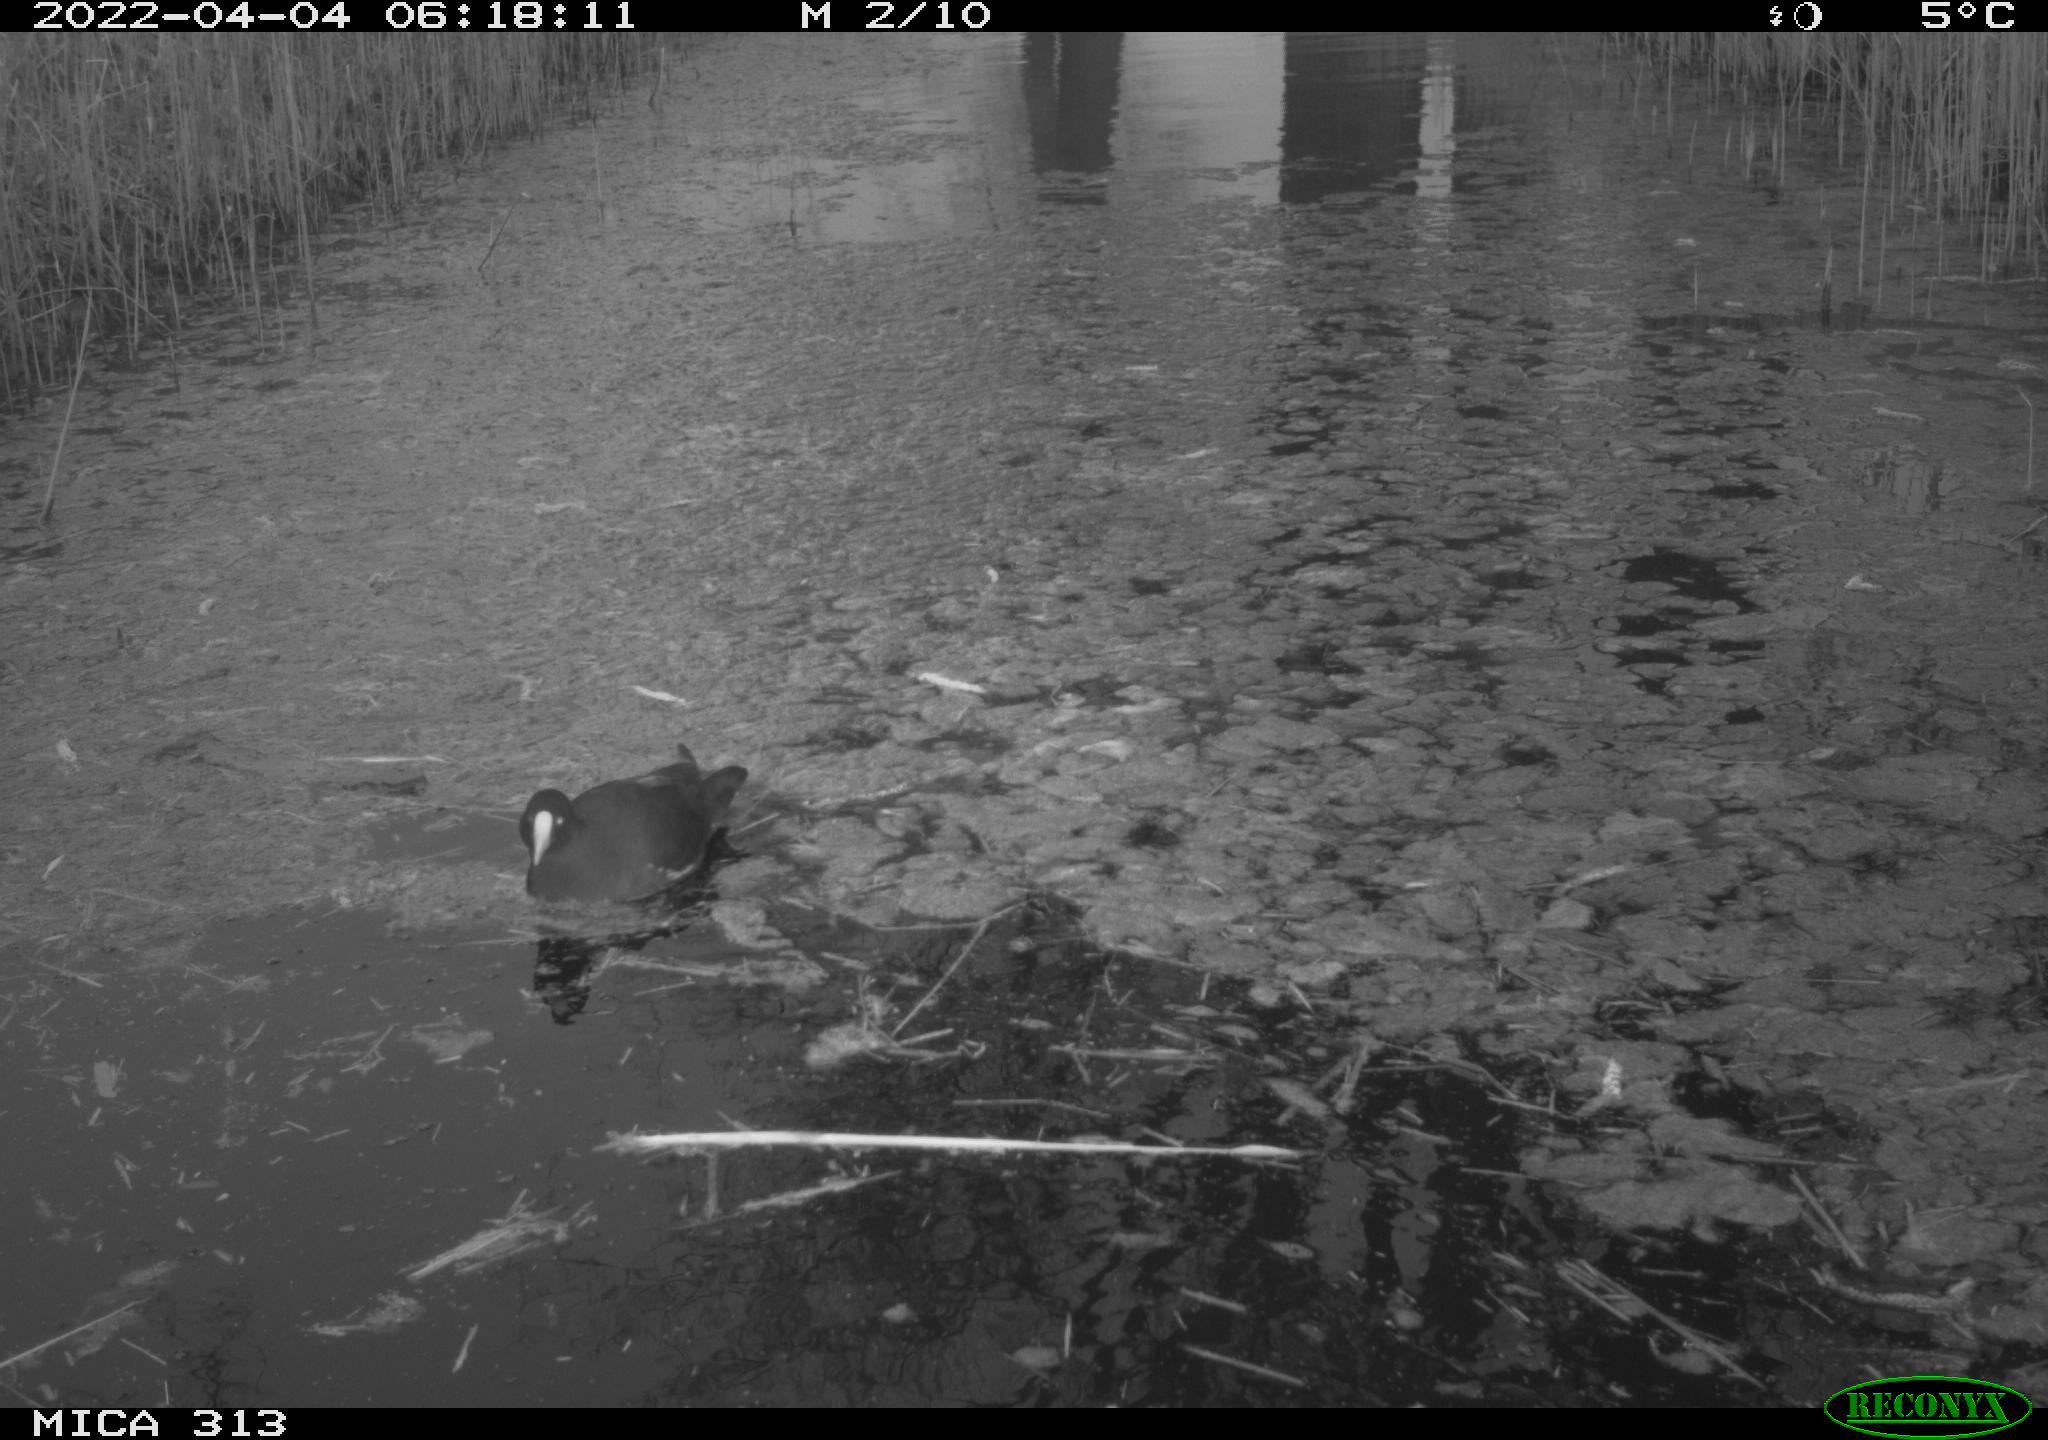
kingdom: Animalia
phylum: Chordata
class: Aves
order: Gruiformes
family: Rallidae
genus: Gallinula
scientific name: Gallinula chloropus
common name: Common moorhen
